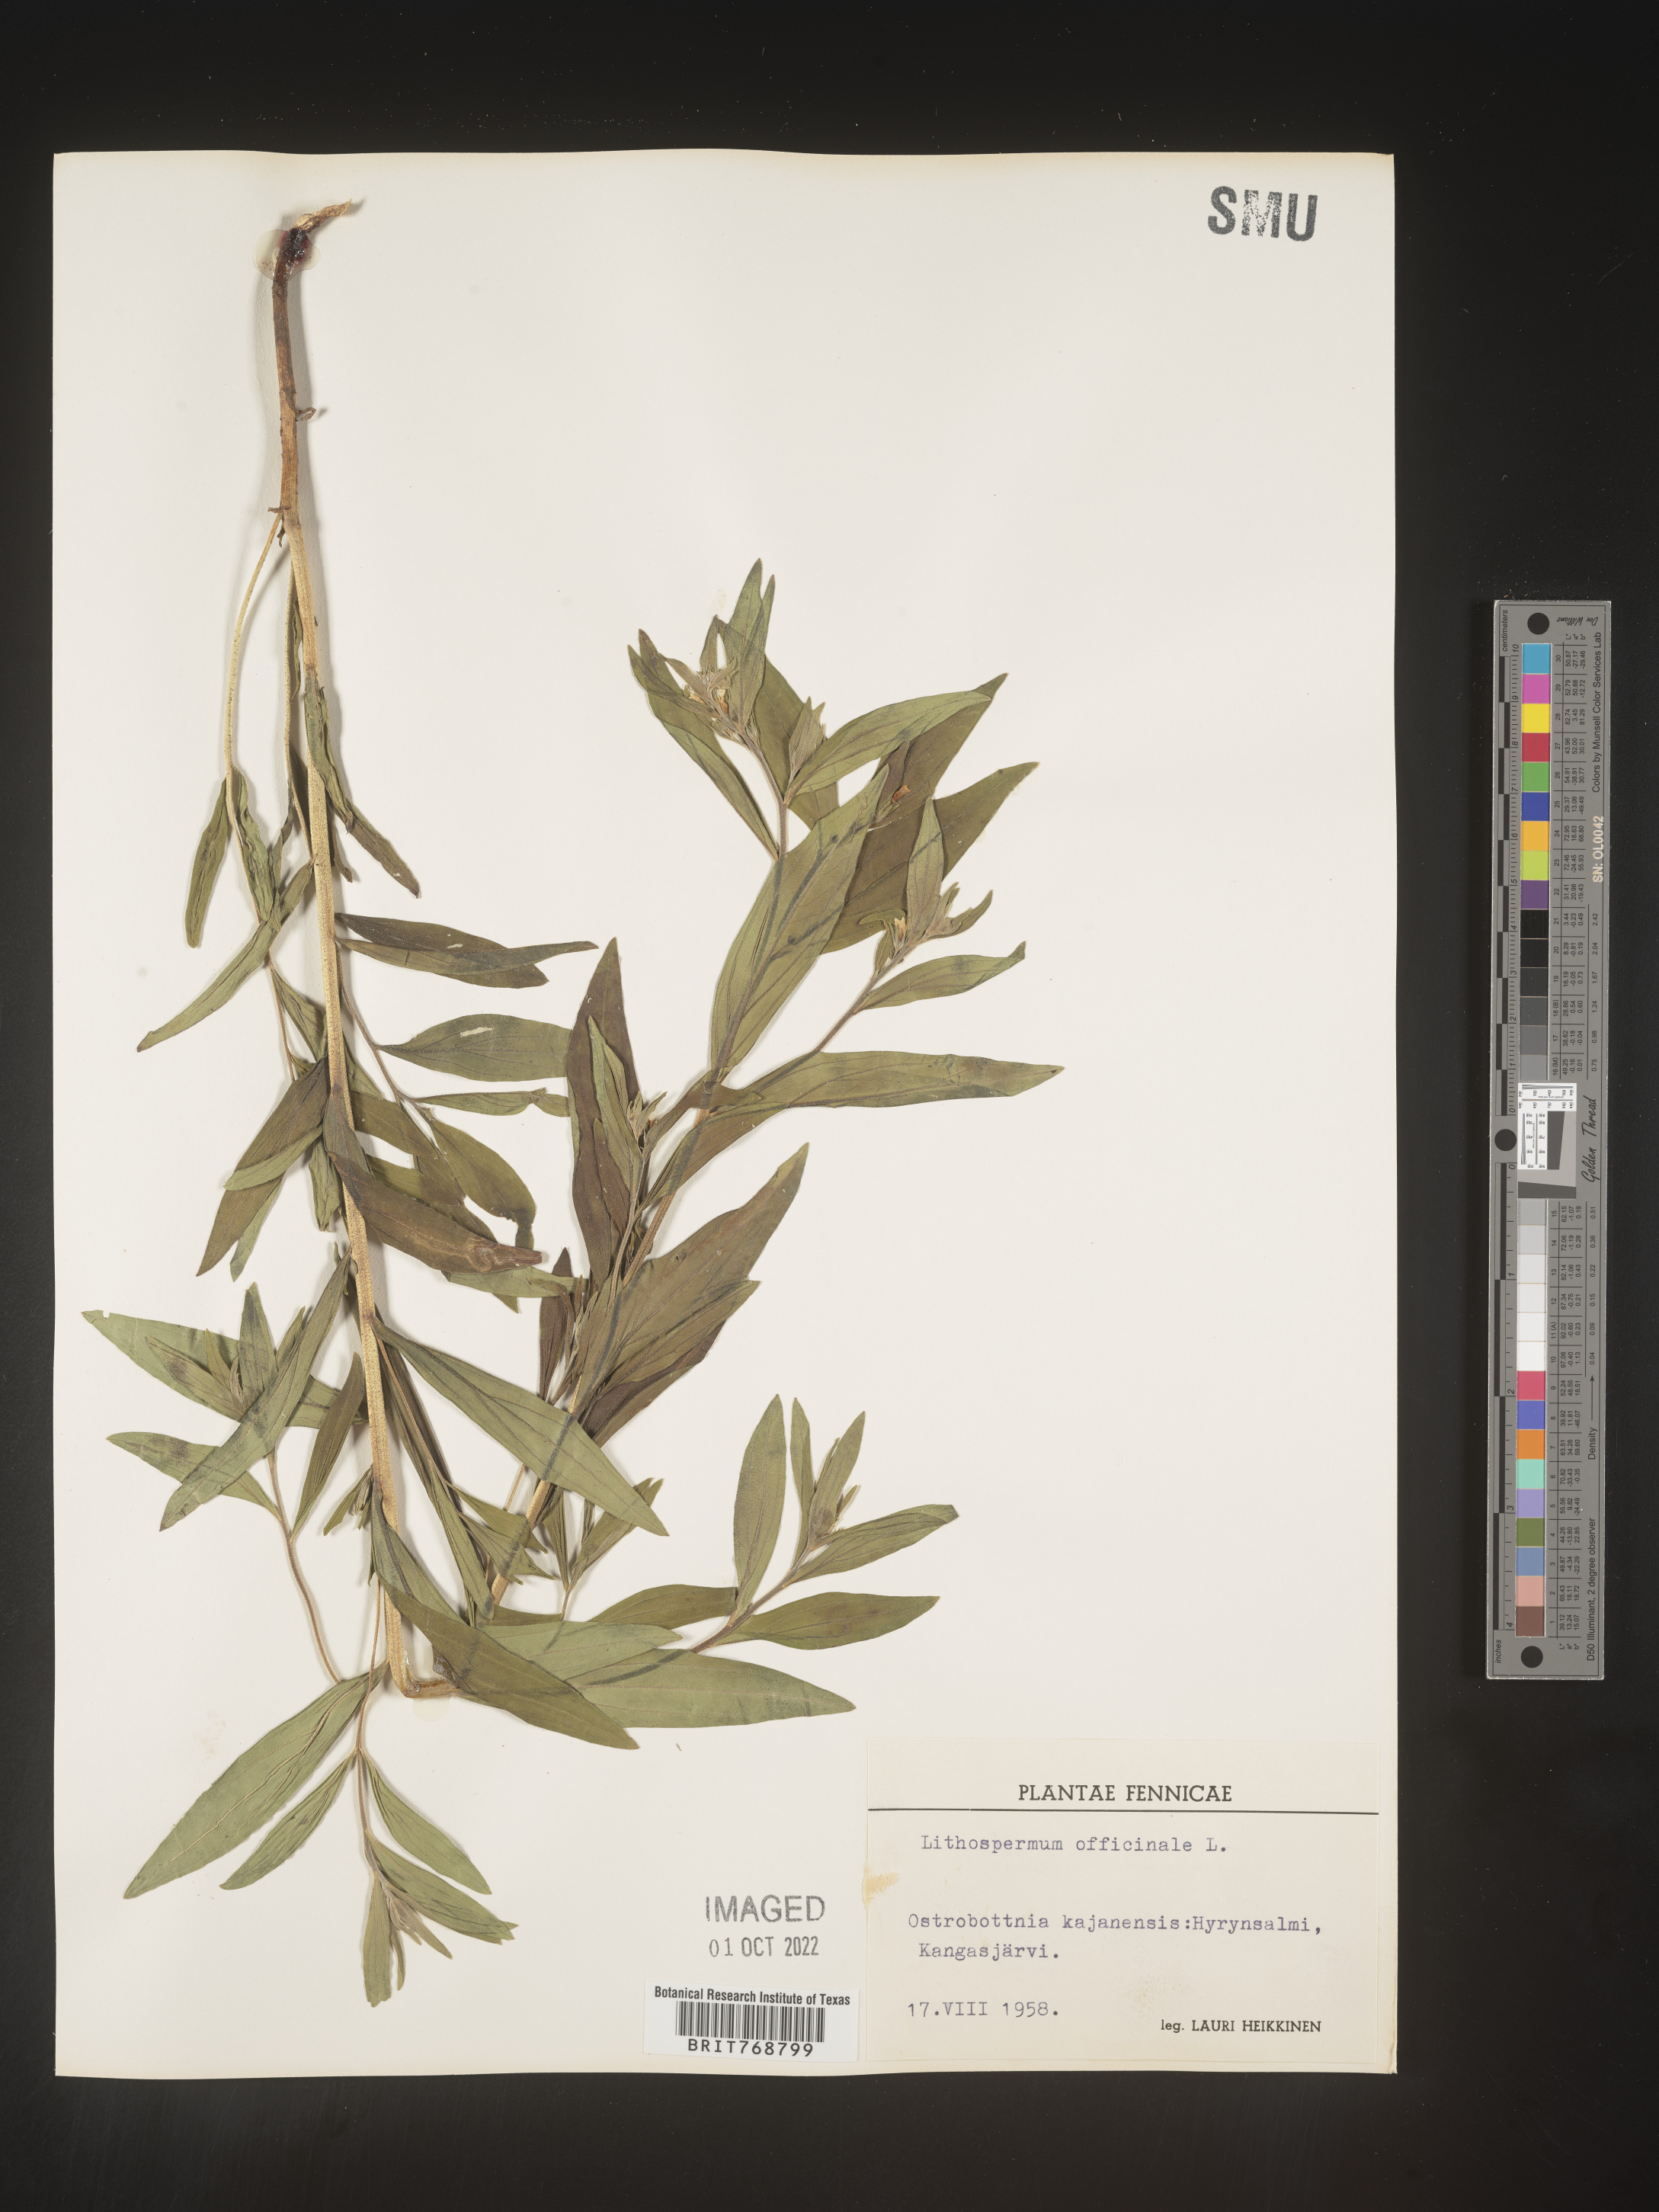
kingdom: Plantae
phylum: Tracheophyta
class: Magnoliopsida
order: Boraginales
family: Boraginaceae
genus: Lithospermum
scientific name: Lithospermum
